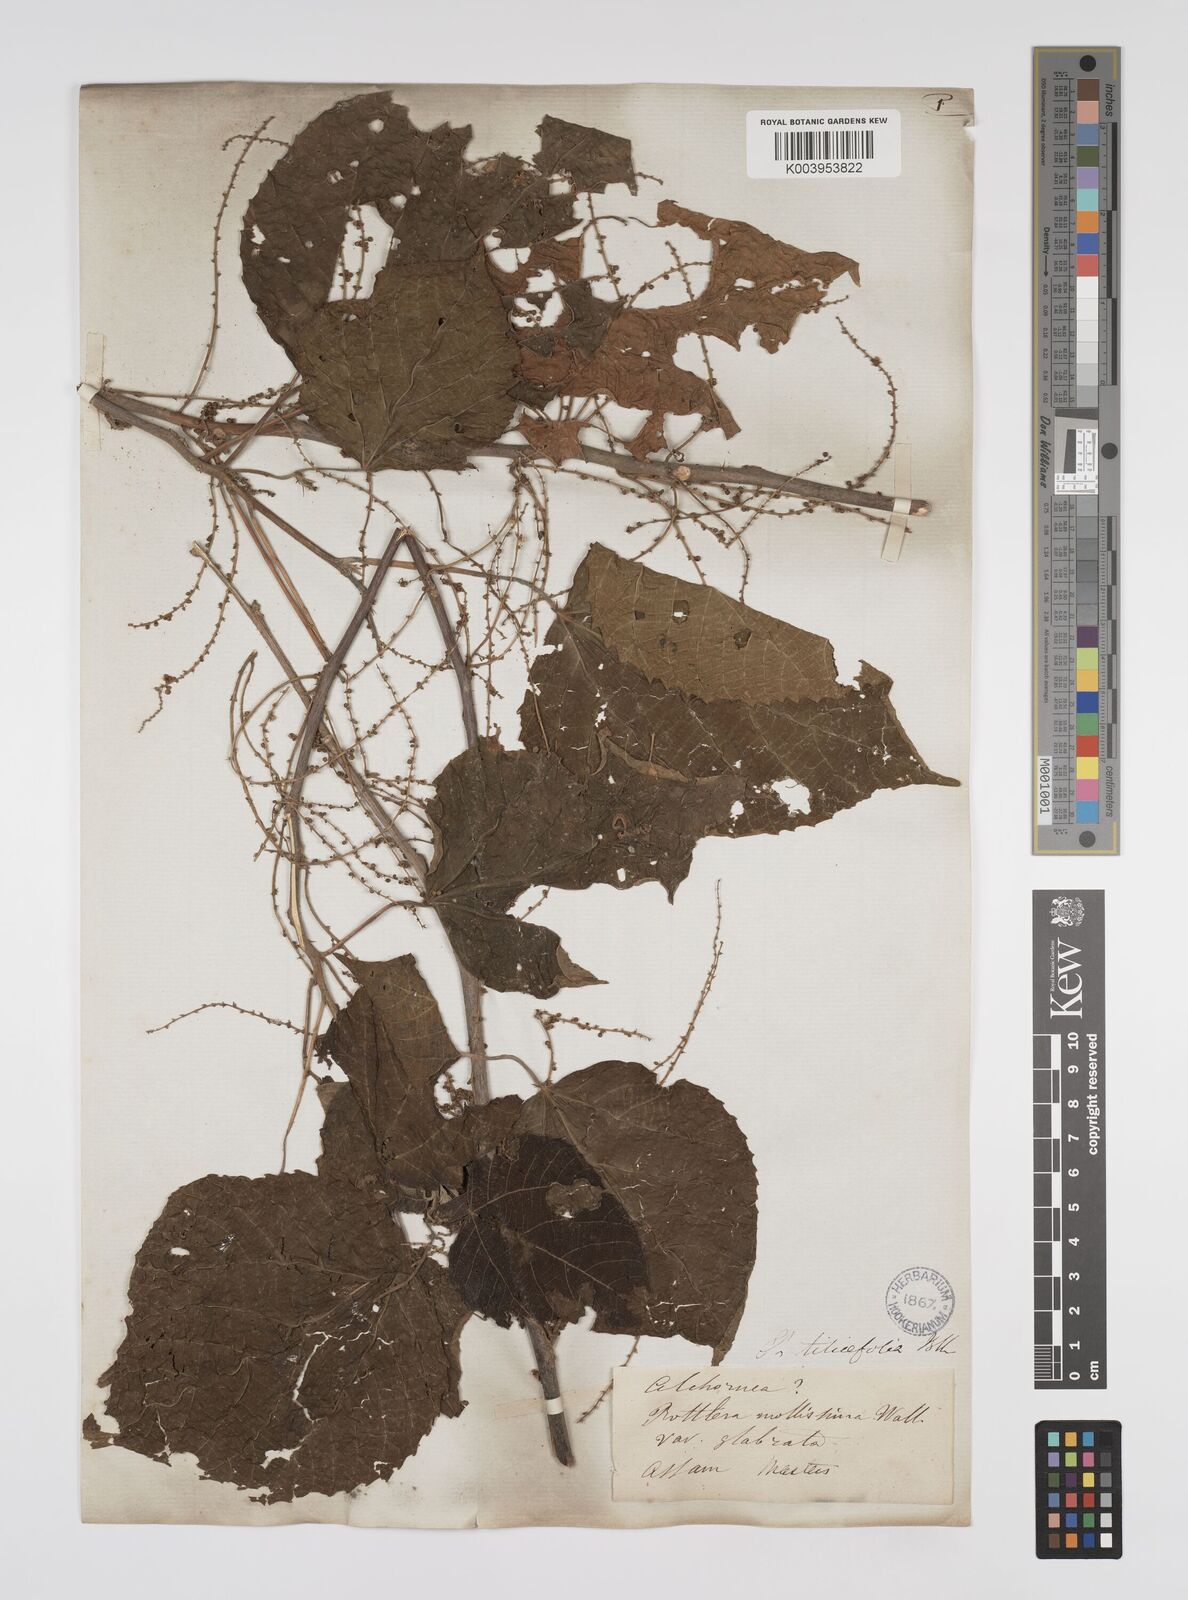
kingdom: Plantae
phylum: Tracheophyta
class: Magnoliopsida
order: Malpighiales
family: Euphorbiaceae
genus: Alchornea
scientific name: Alchornea tiliifolia
